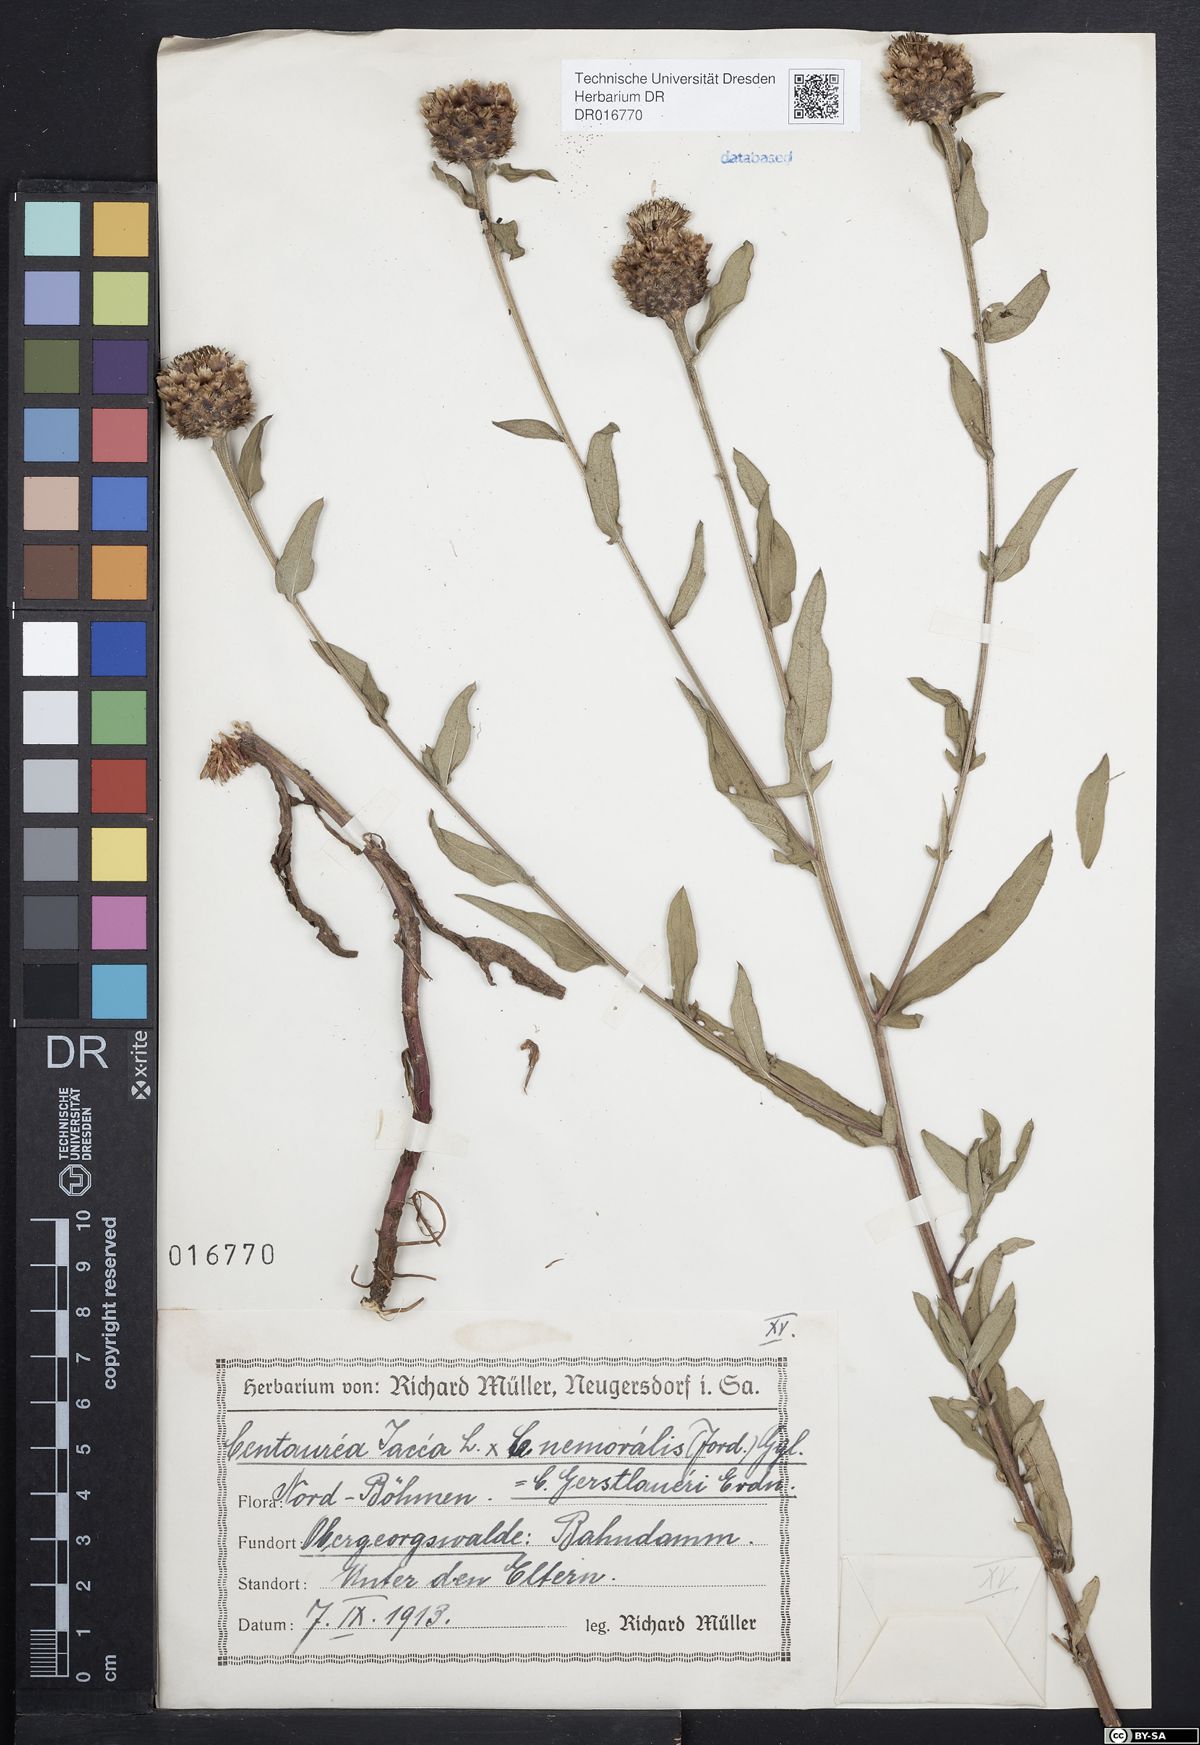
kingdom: Plantae
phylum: Tracheophyta
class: Magnoliopsida
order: Asterales
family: Asteraceae
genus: Centaurea
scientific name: Centaurea jacea
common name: Brown knapweed
